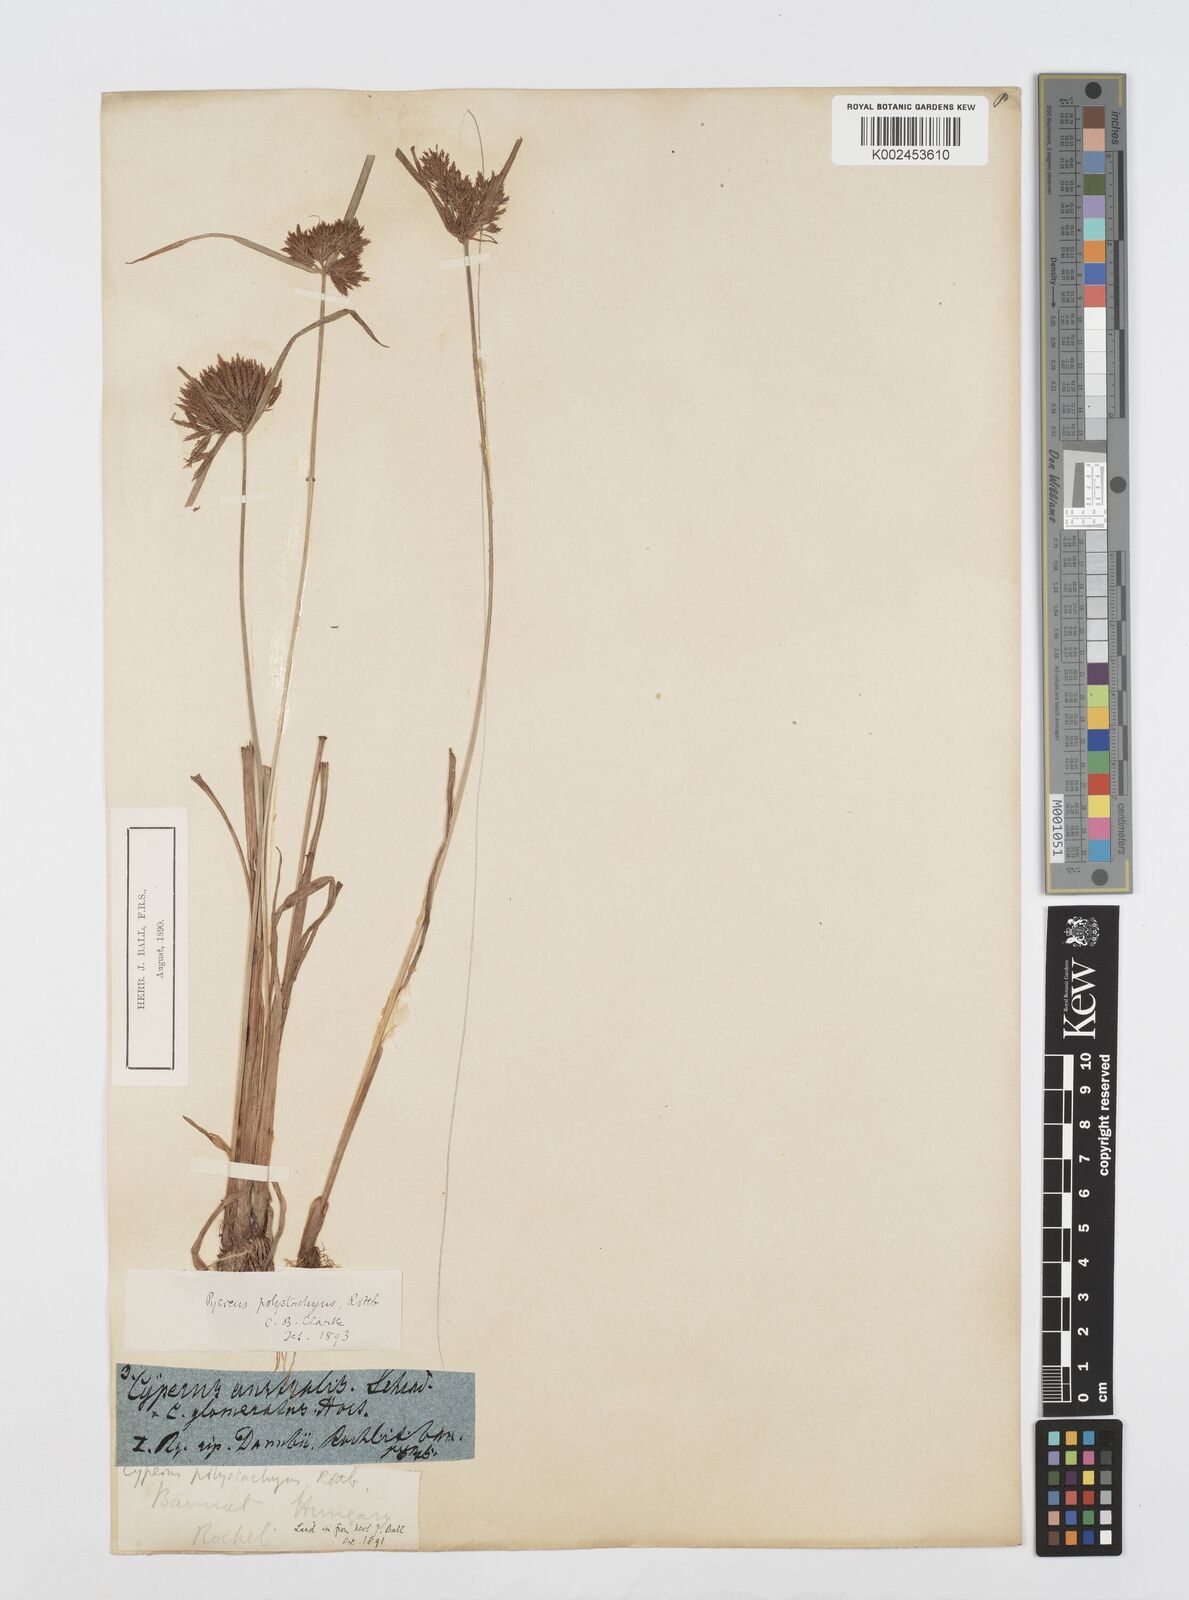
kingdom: Plantae
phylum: Tracheophyta
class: Liliopsida
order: Poales
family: Cyperaceae
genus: Cyperus
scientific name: Cyperus polystachyos
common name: Bunchy flat sedge
